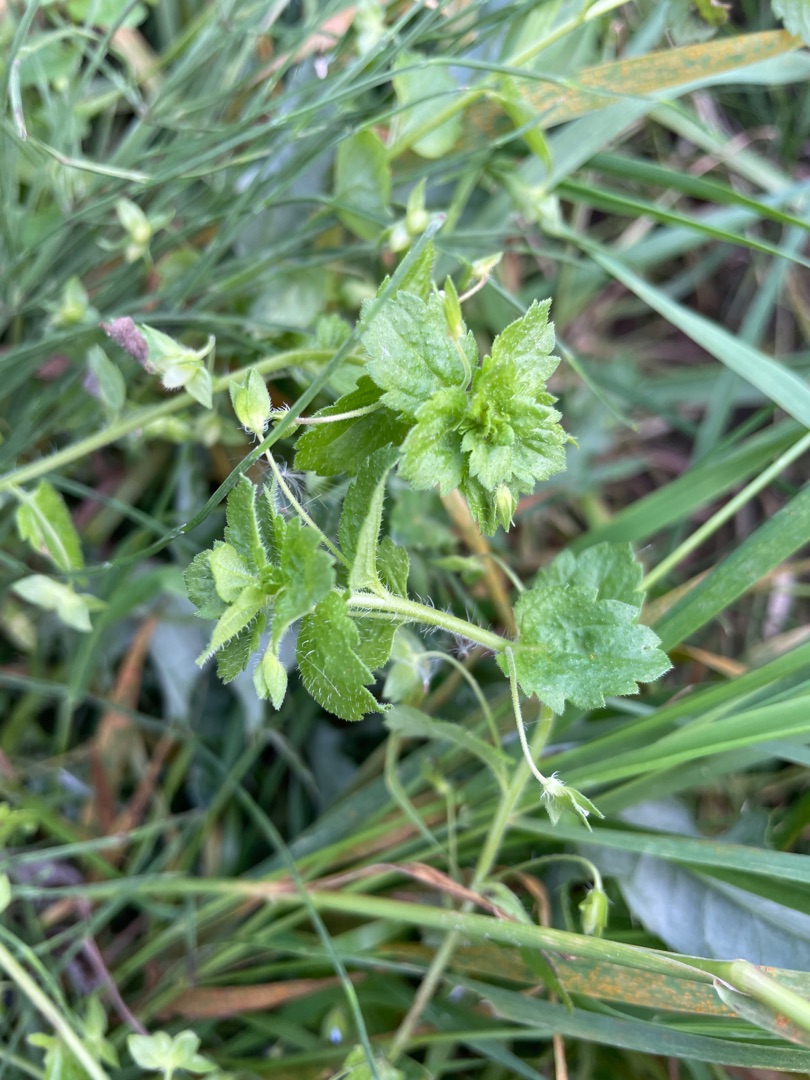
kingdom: Plantae
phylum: Tracheophyta
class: Magnoliopsida
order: Lamiales
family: Plantaginaceae
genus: Veronica
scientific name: Veronica persica
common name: Storkronet ærenpris
